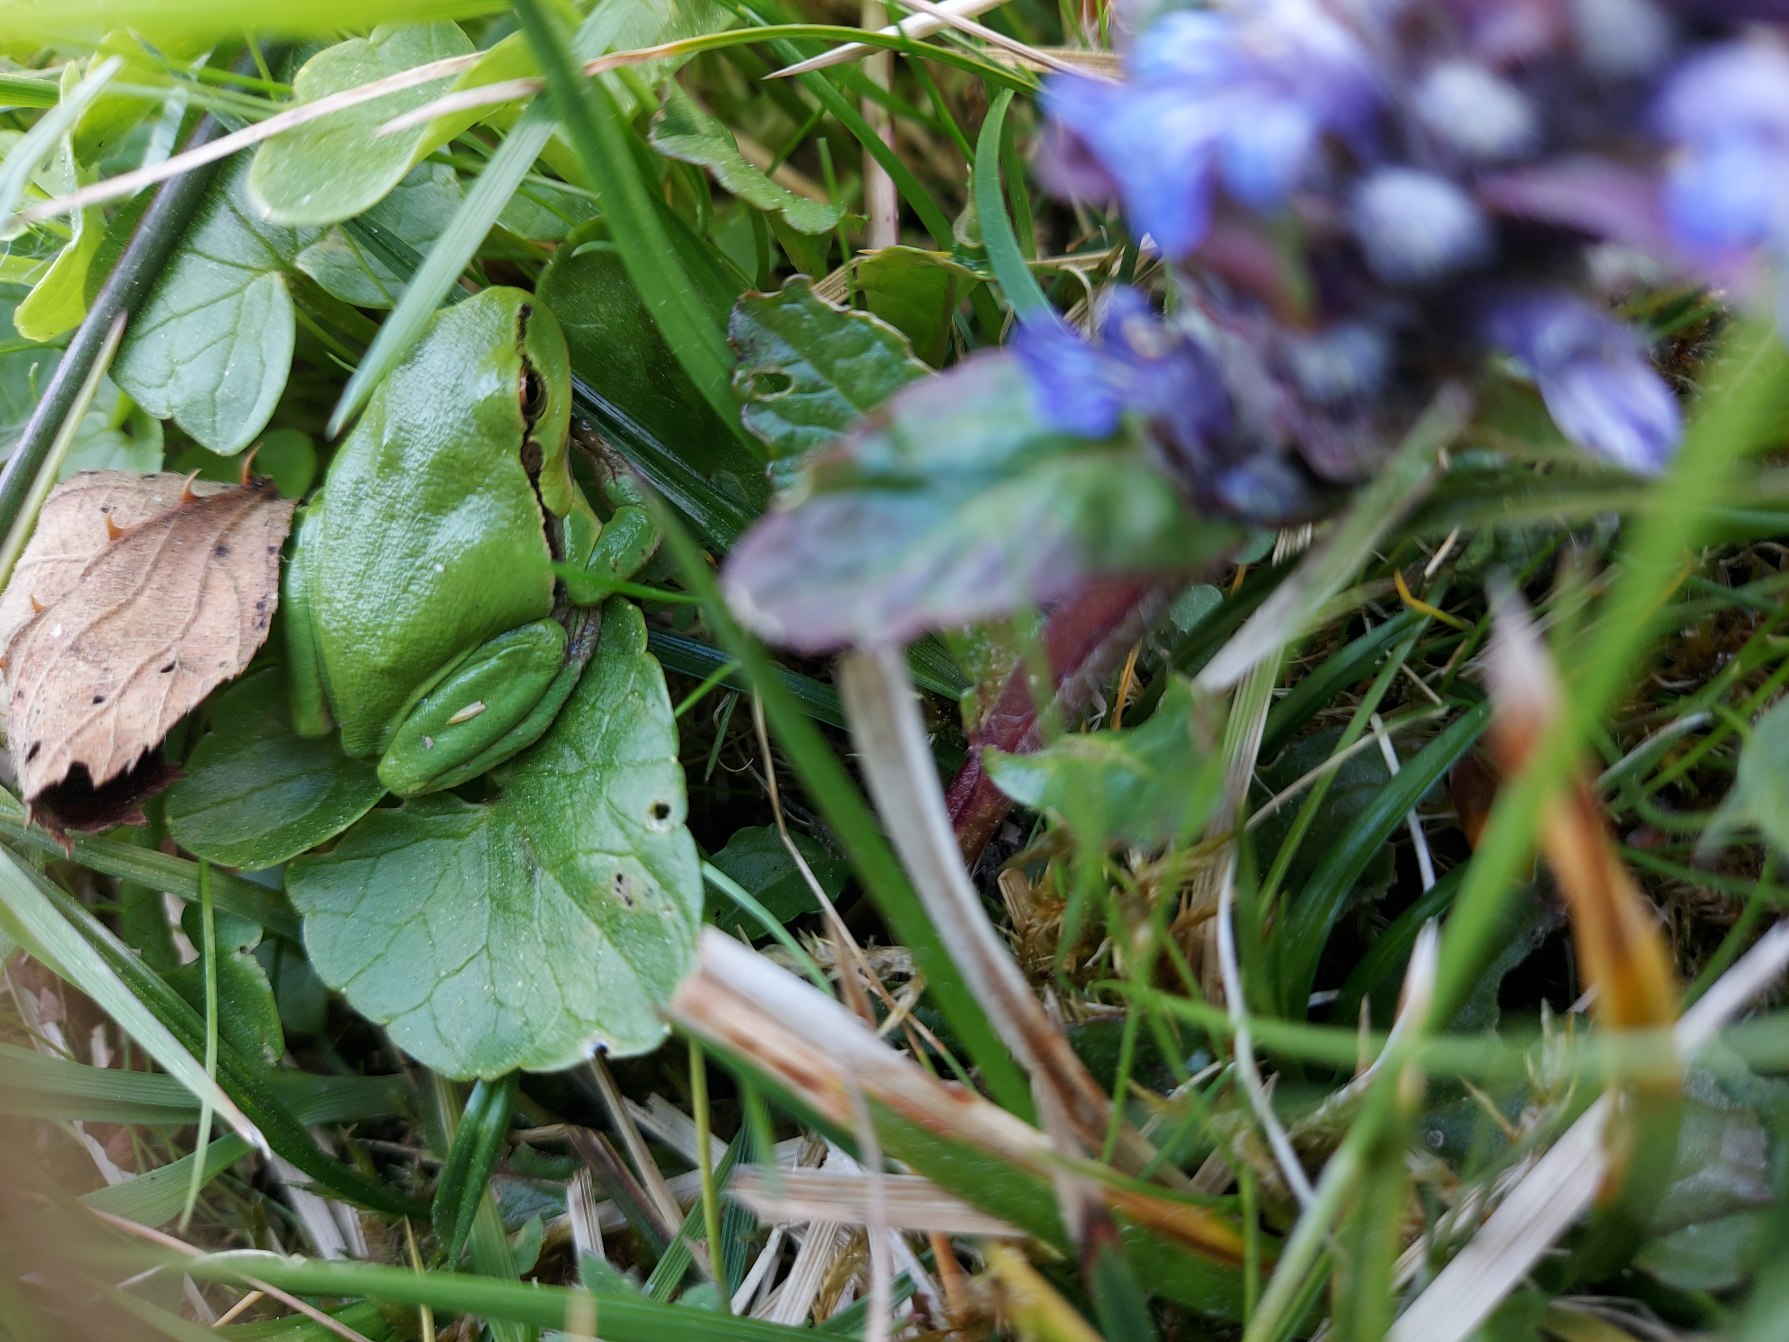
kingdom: Animalia
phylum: Chordata
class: Amphibia
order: Anura
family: Hylidae
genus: Hyla
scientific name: Hyla arborea
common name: Løvfrø
